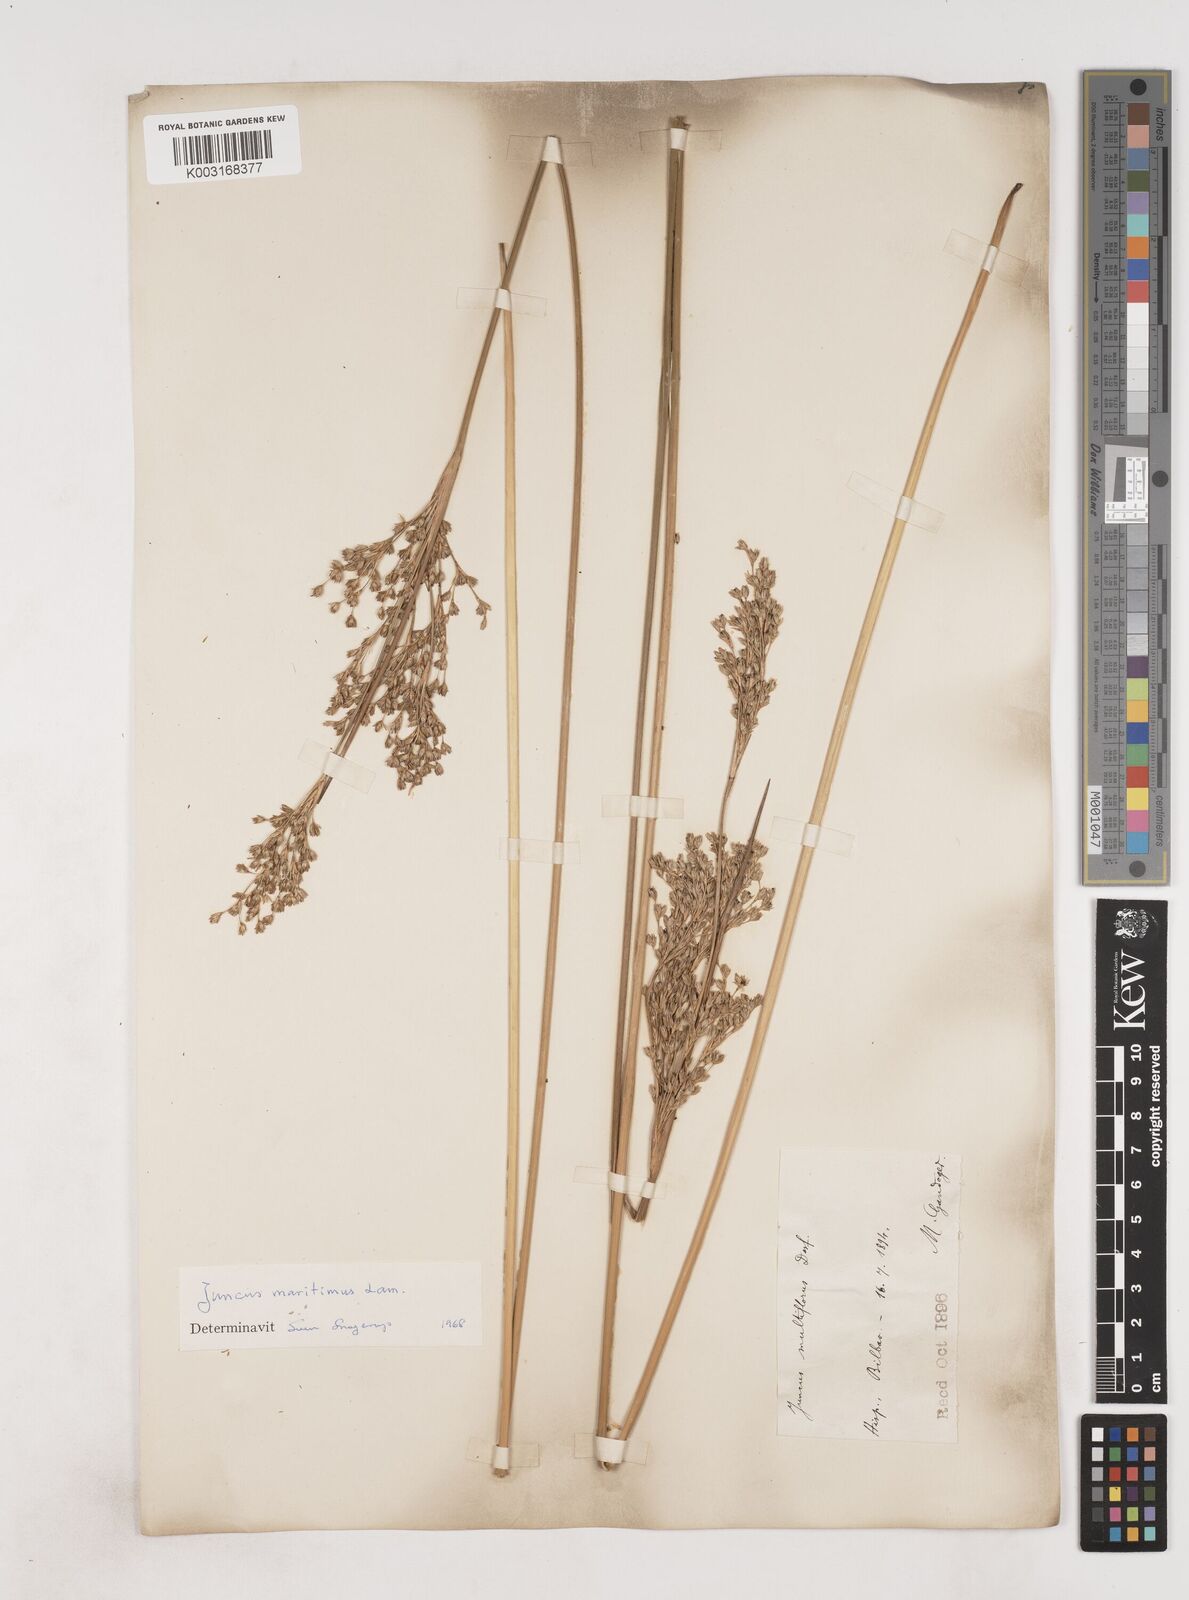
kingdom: Plantae
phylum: Tracheophyta
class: Liliopsida
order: Poales
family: Juncaceae
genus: Luzula
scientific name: Luzula sylvatica
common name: Great wood-rush
